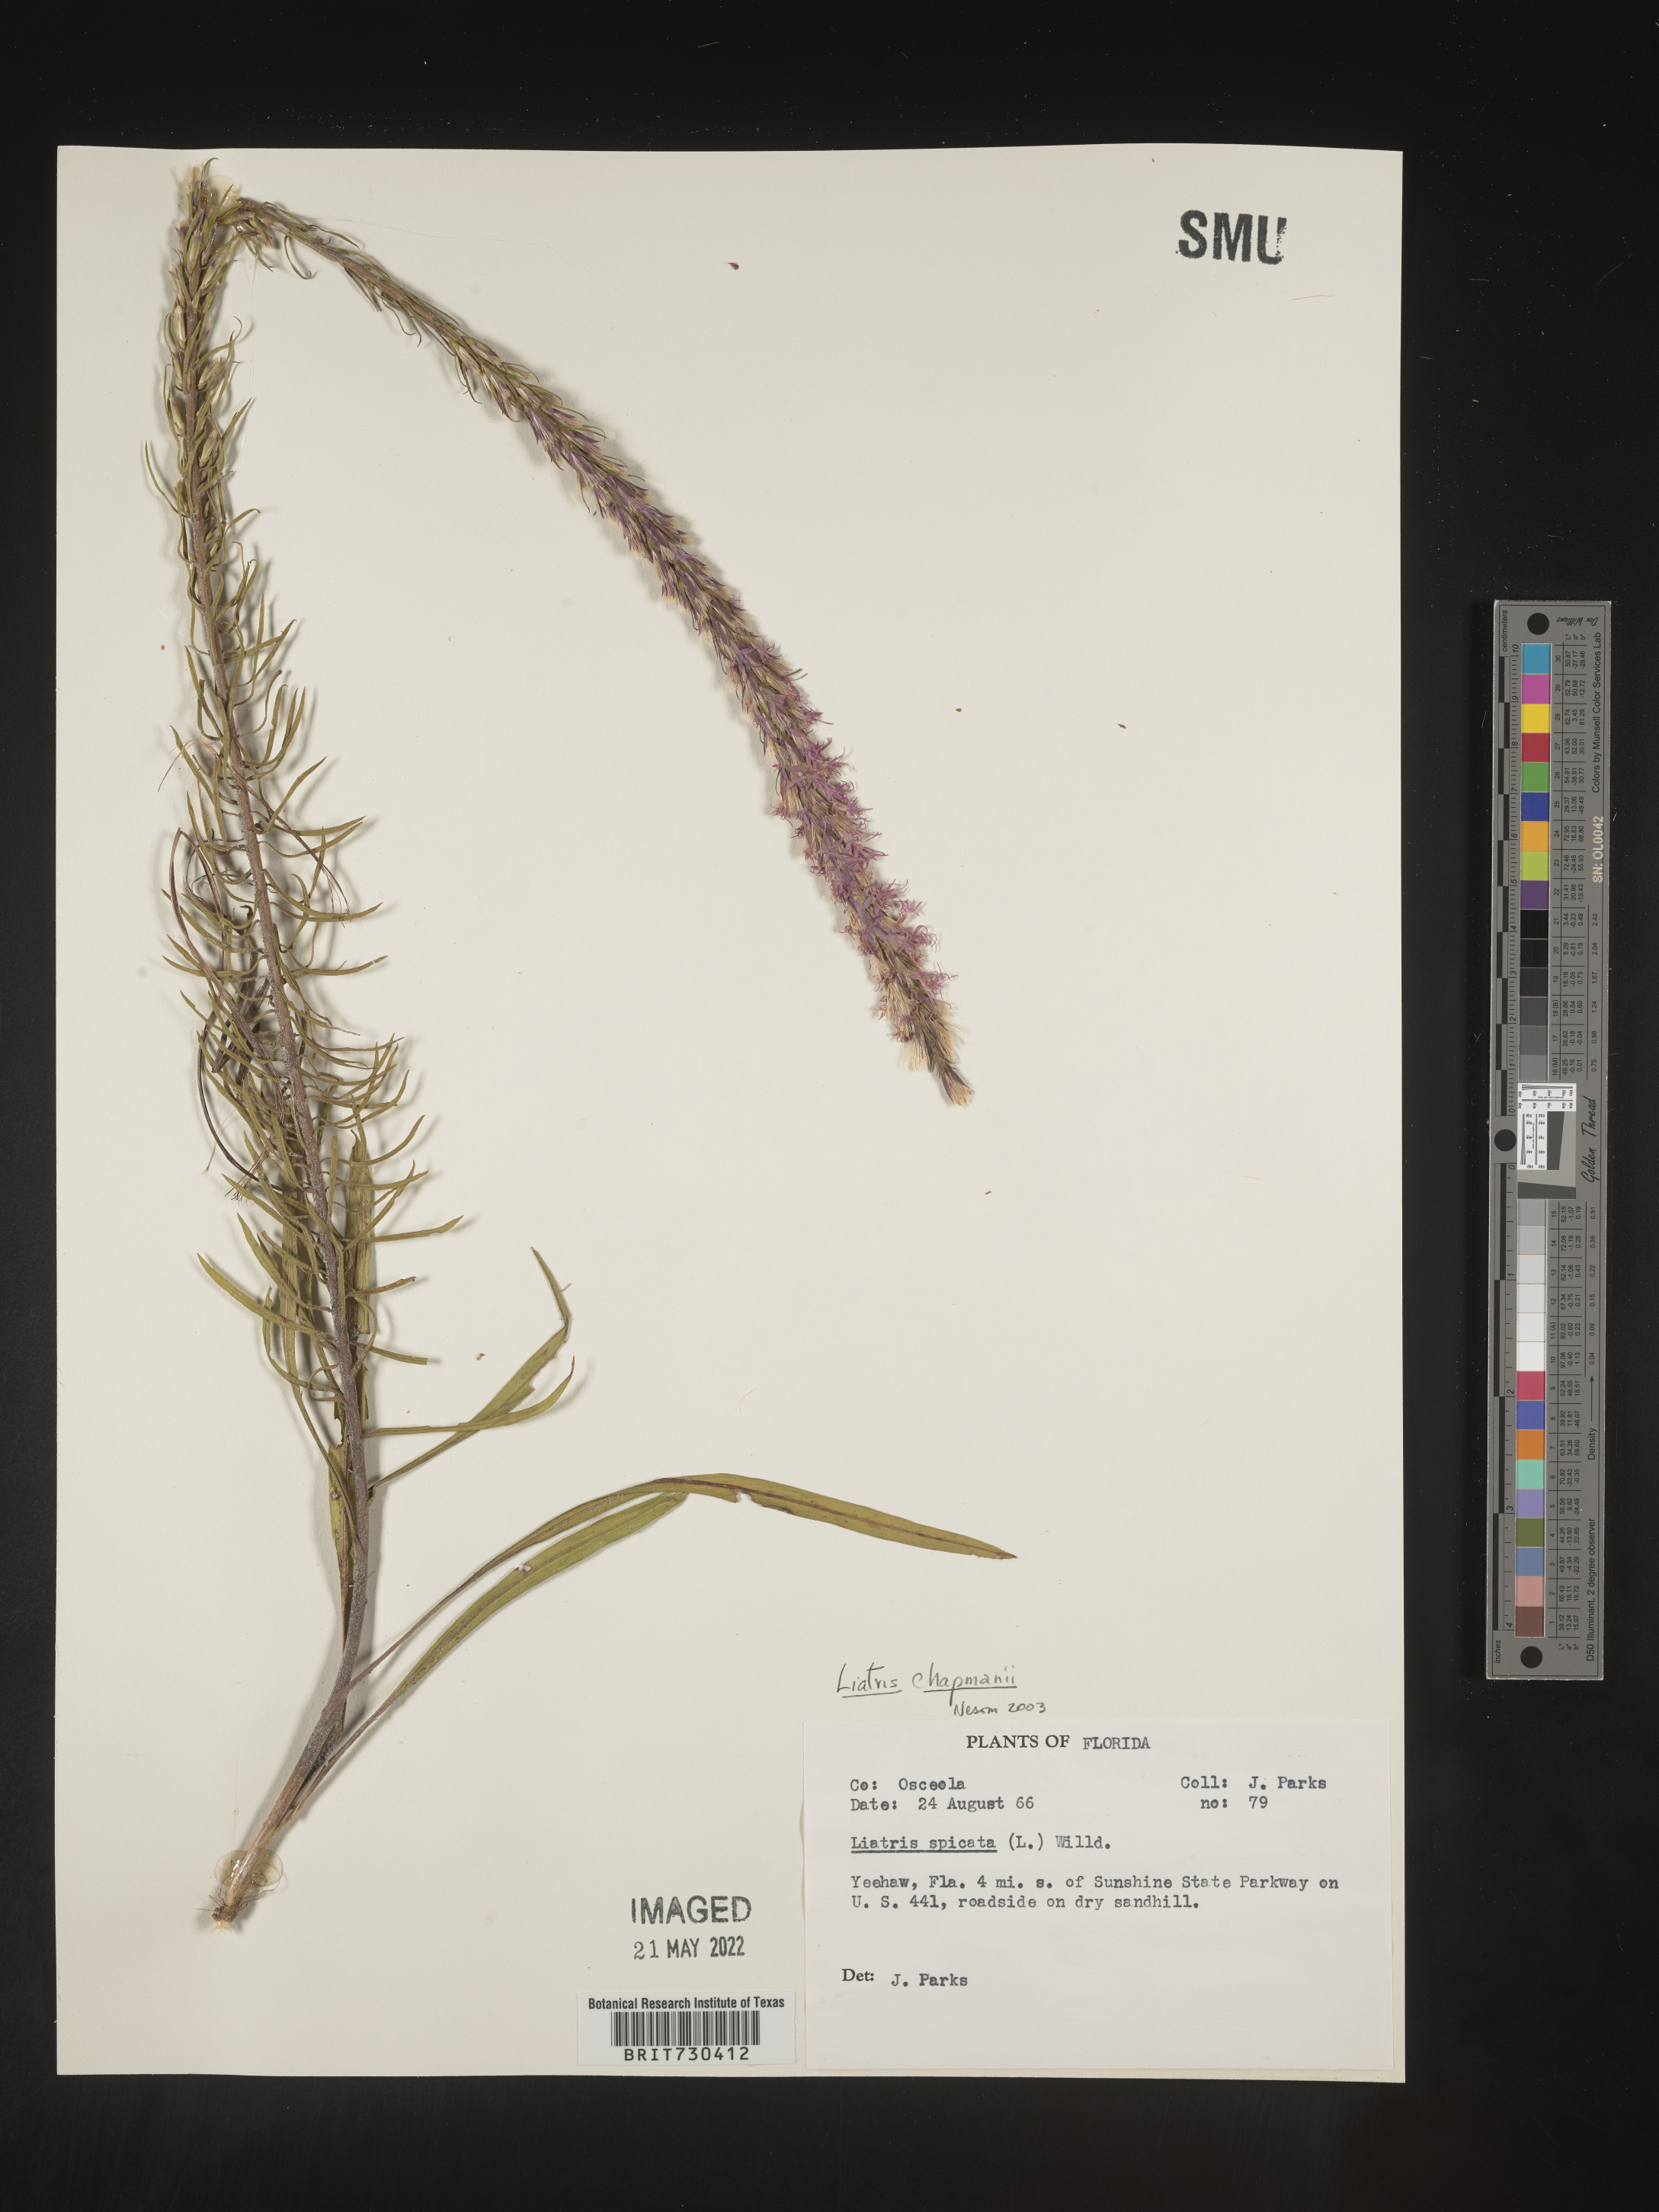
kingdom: Plantae
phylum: Tracheophyta
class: Magnoliopsida
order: Asterales
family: Asteraceae
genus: Liatris
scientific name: Liatris chapmanii
